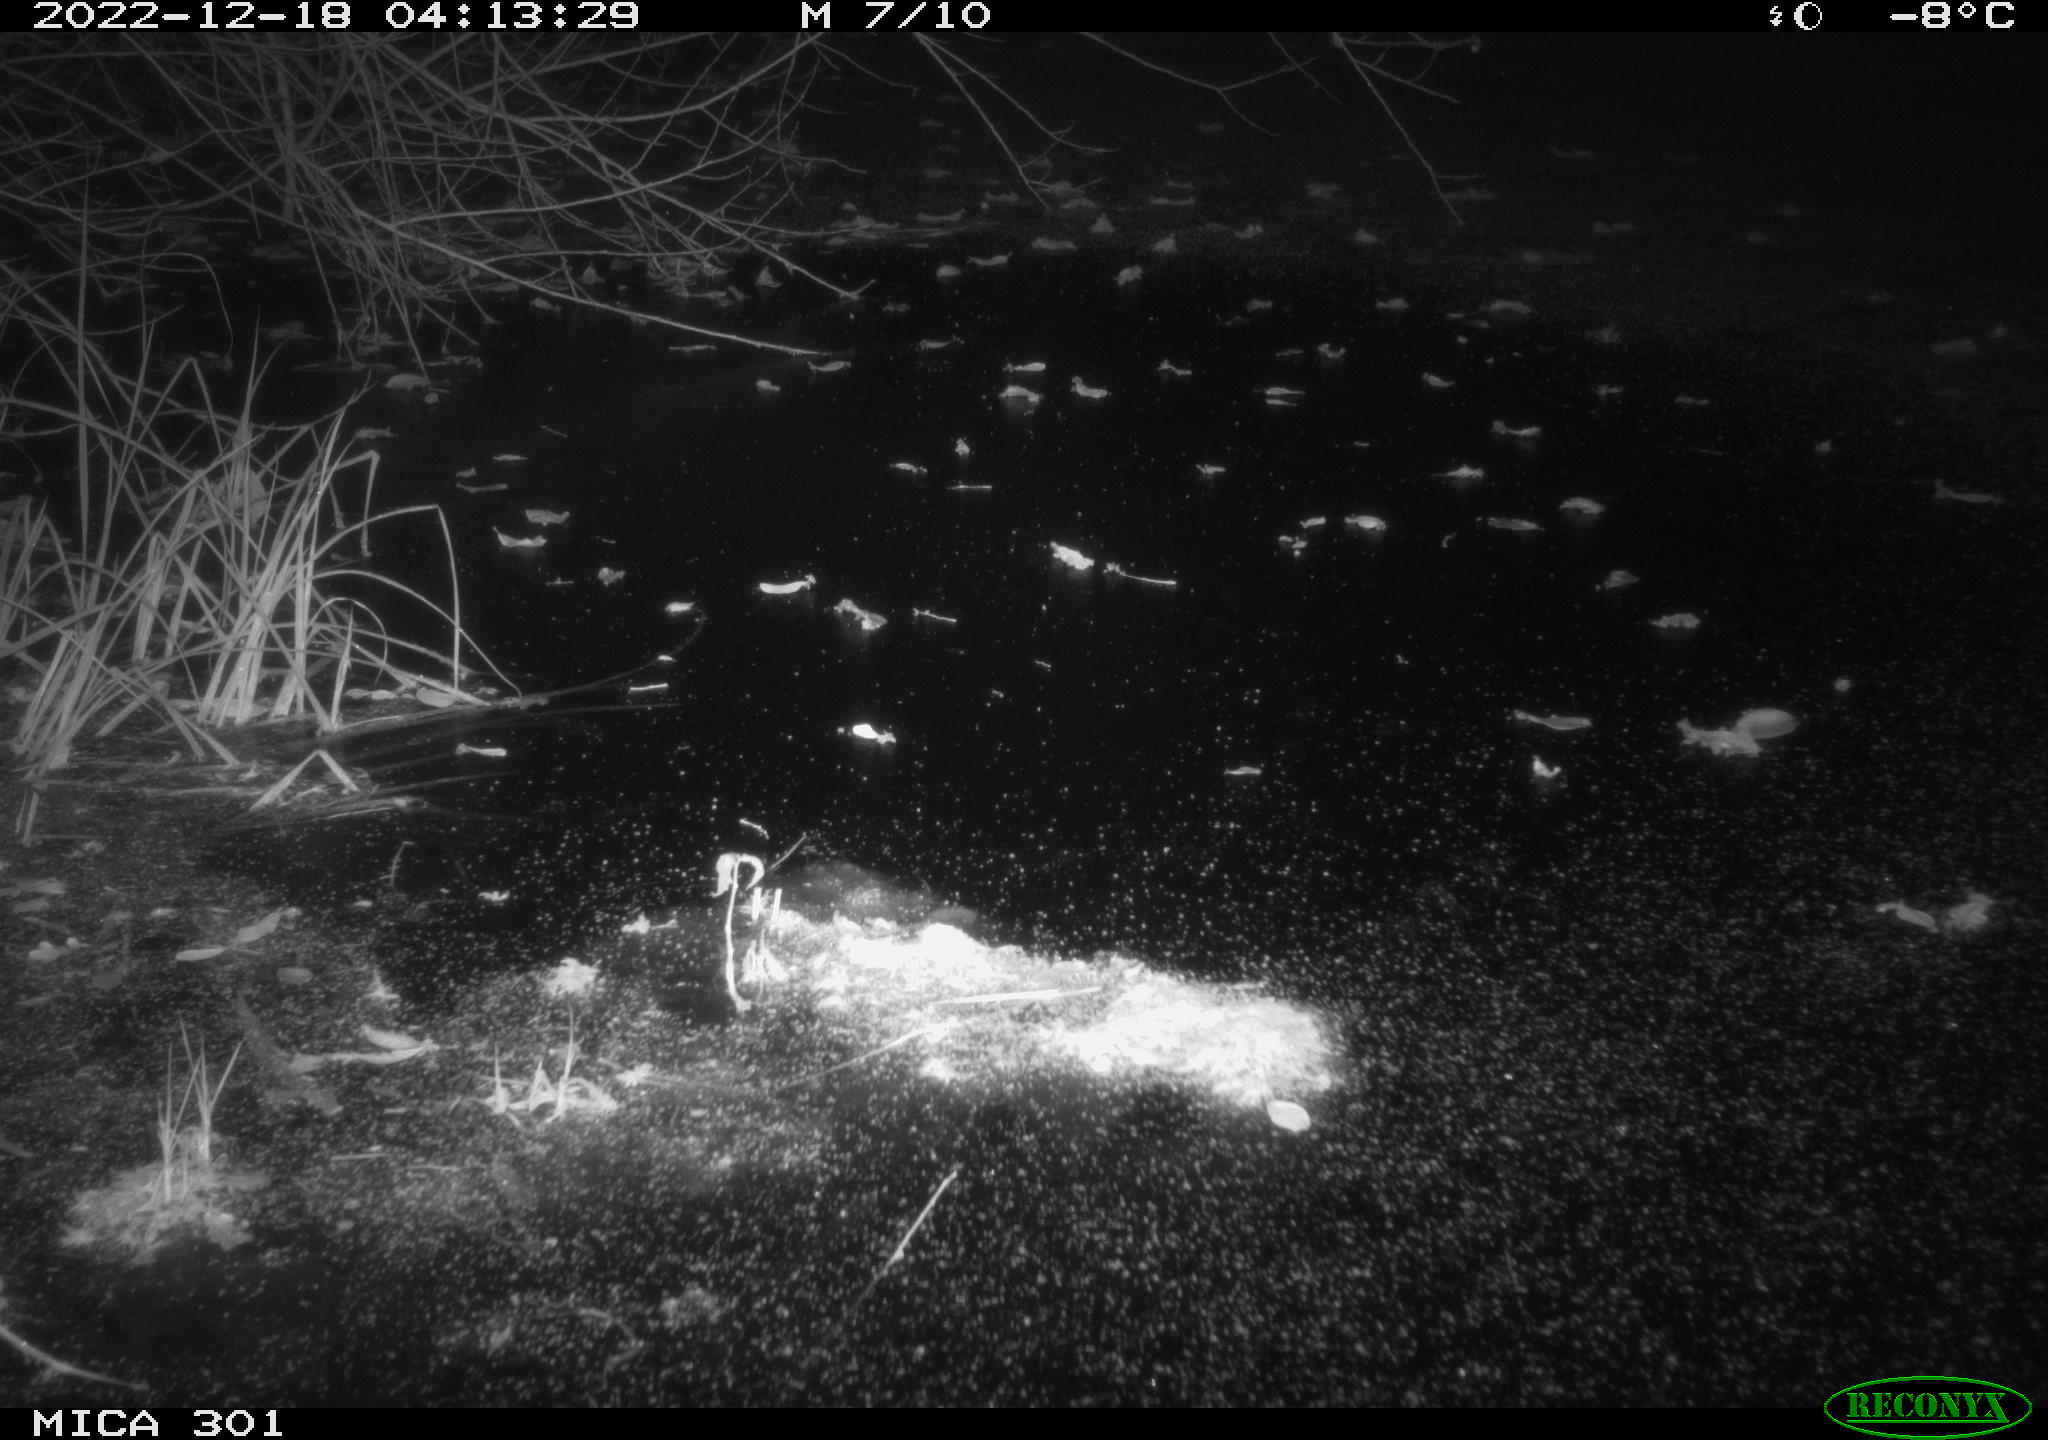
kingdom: Animalia
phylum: Chordata
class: Mammalia
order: Carnivora
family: Mustelidae
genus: Martes
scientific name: Martes martes
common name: European pine marten
